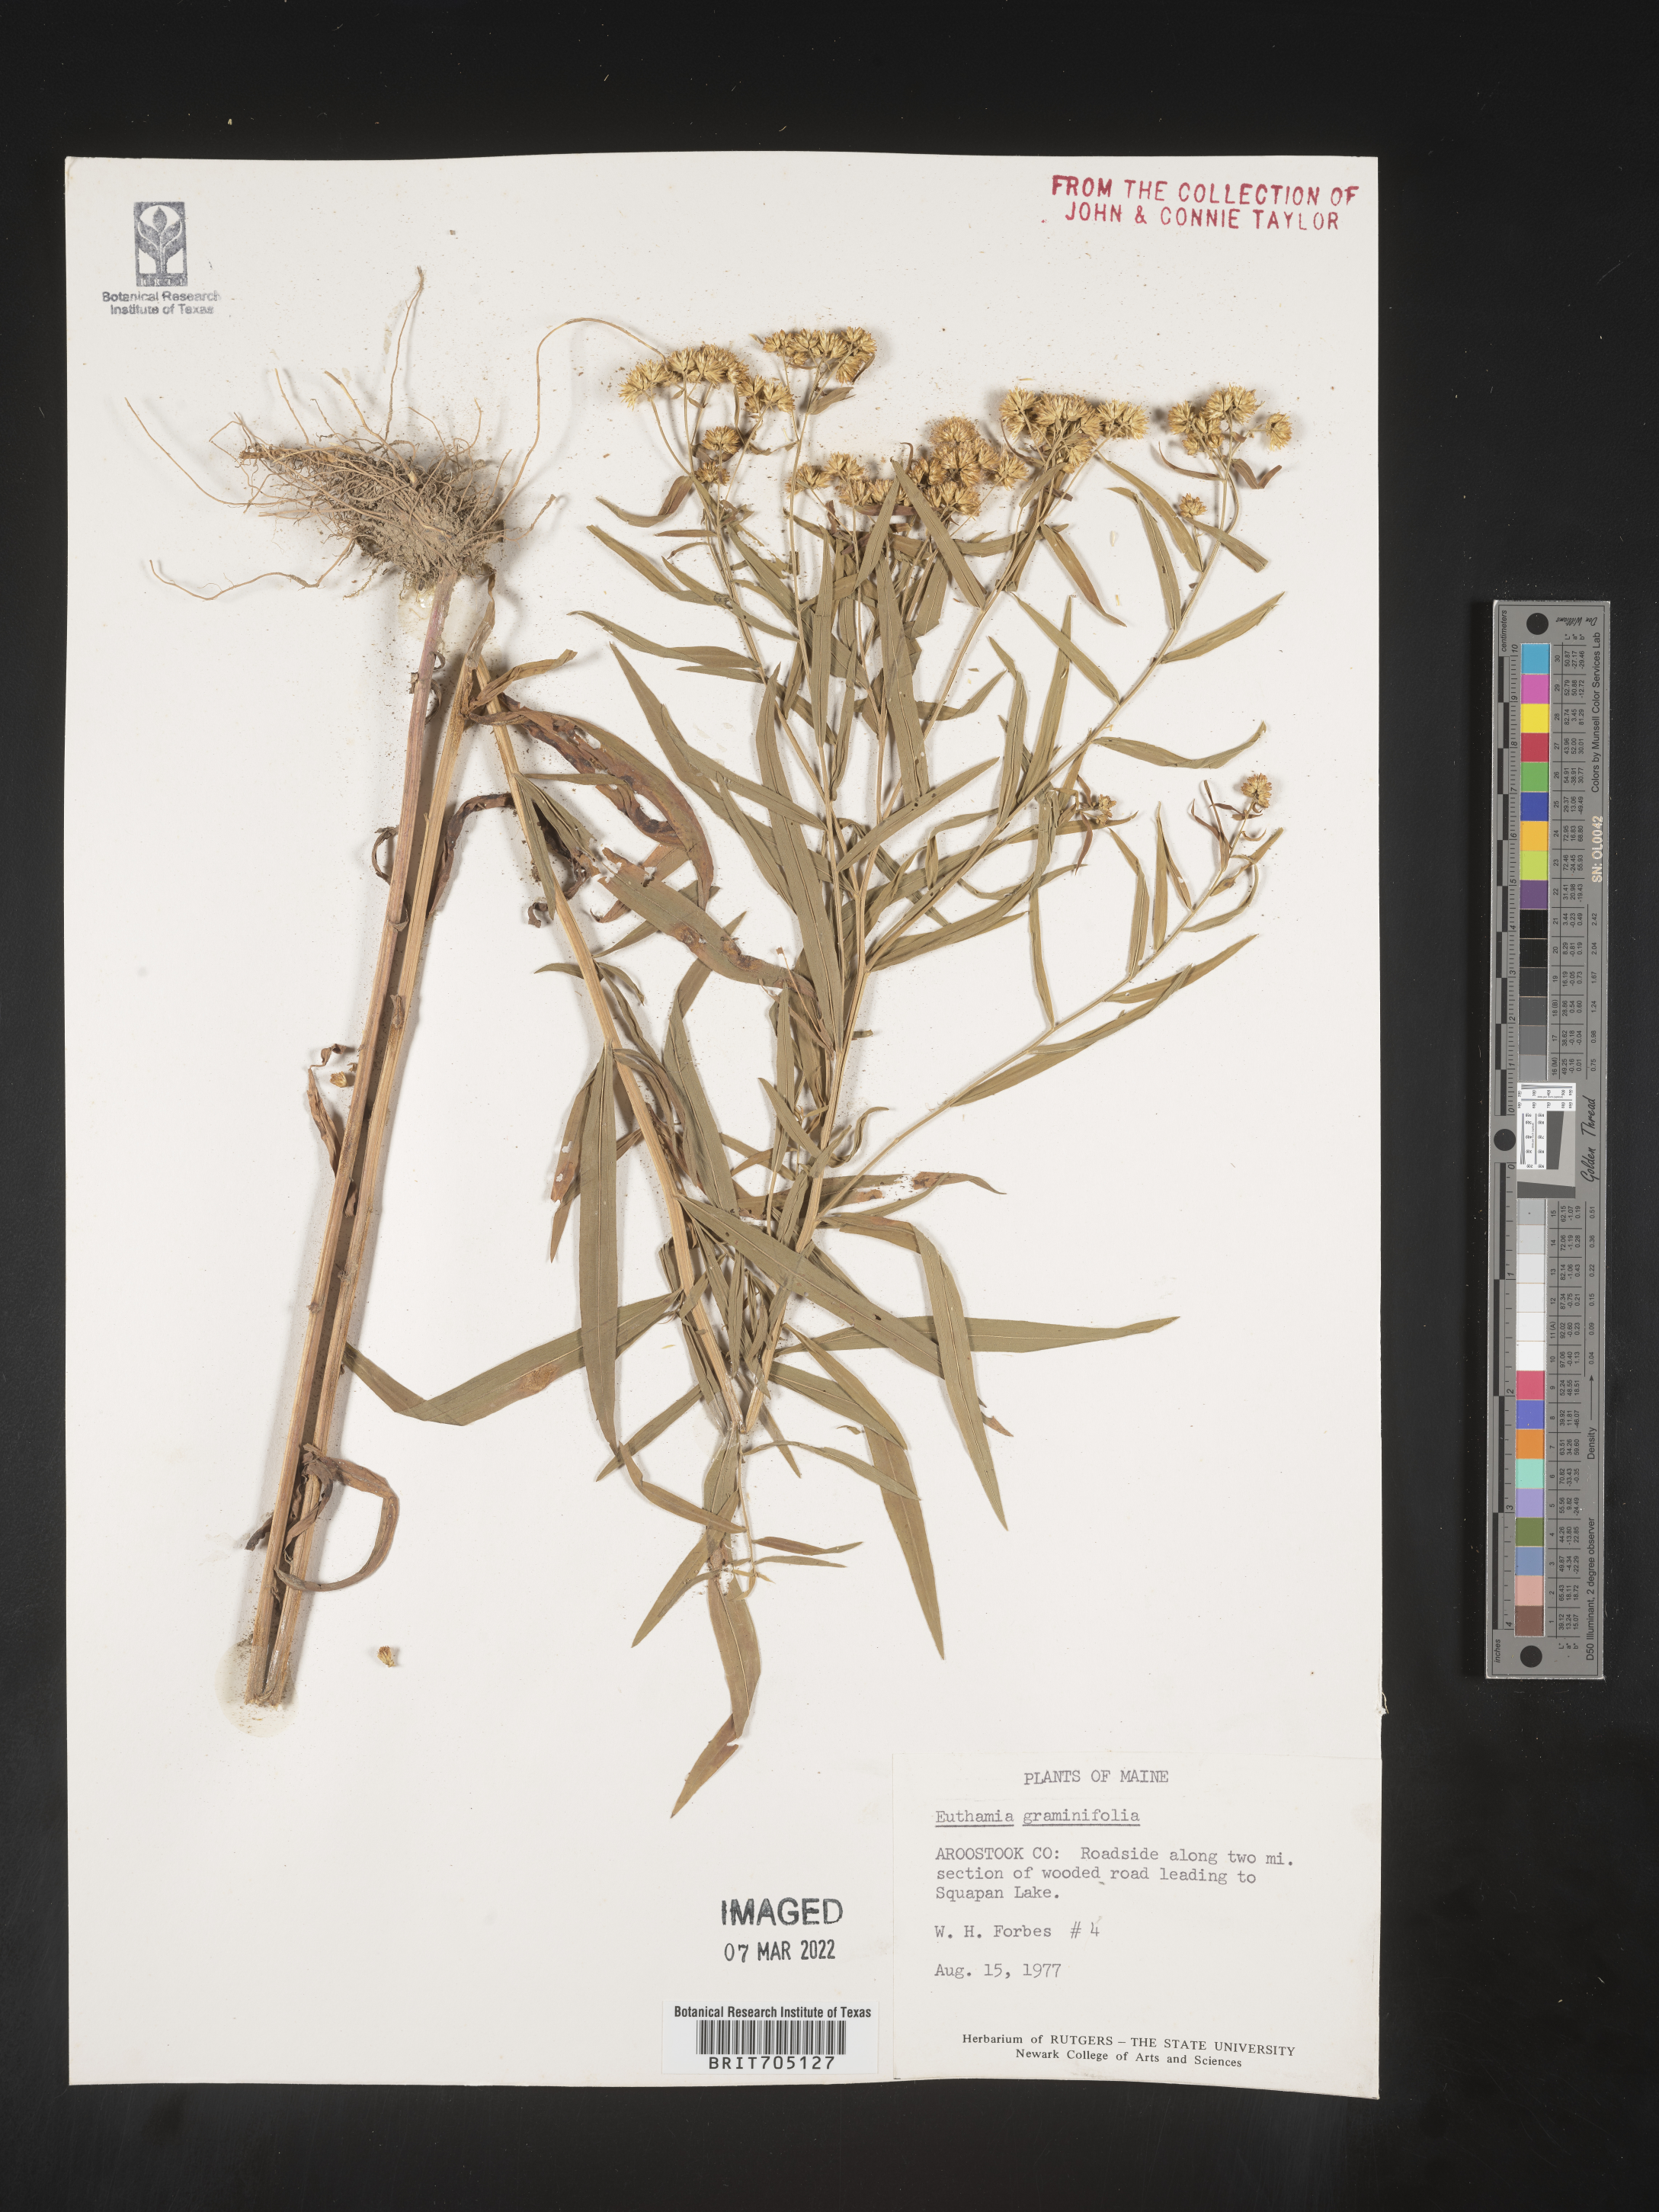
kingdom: Plantae
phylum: Tracheophyta
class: Magnoliopsida
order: Asterales
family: Asteraceae
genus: Euthamia
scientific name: Euthamia graminifolia
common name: Common goldentop
